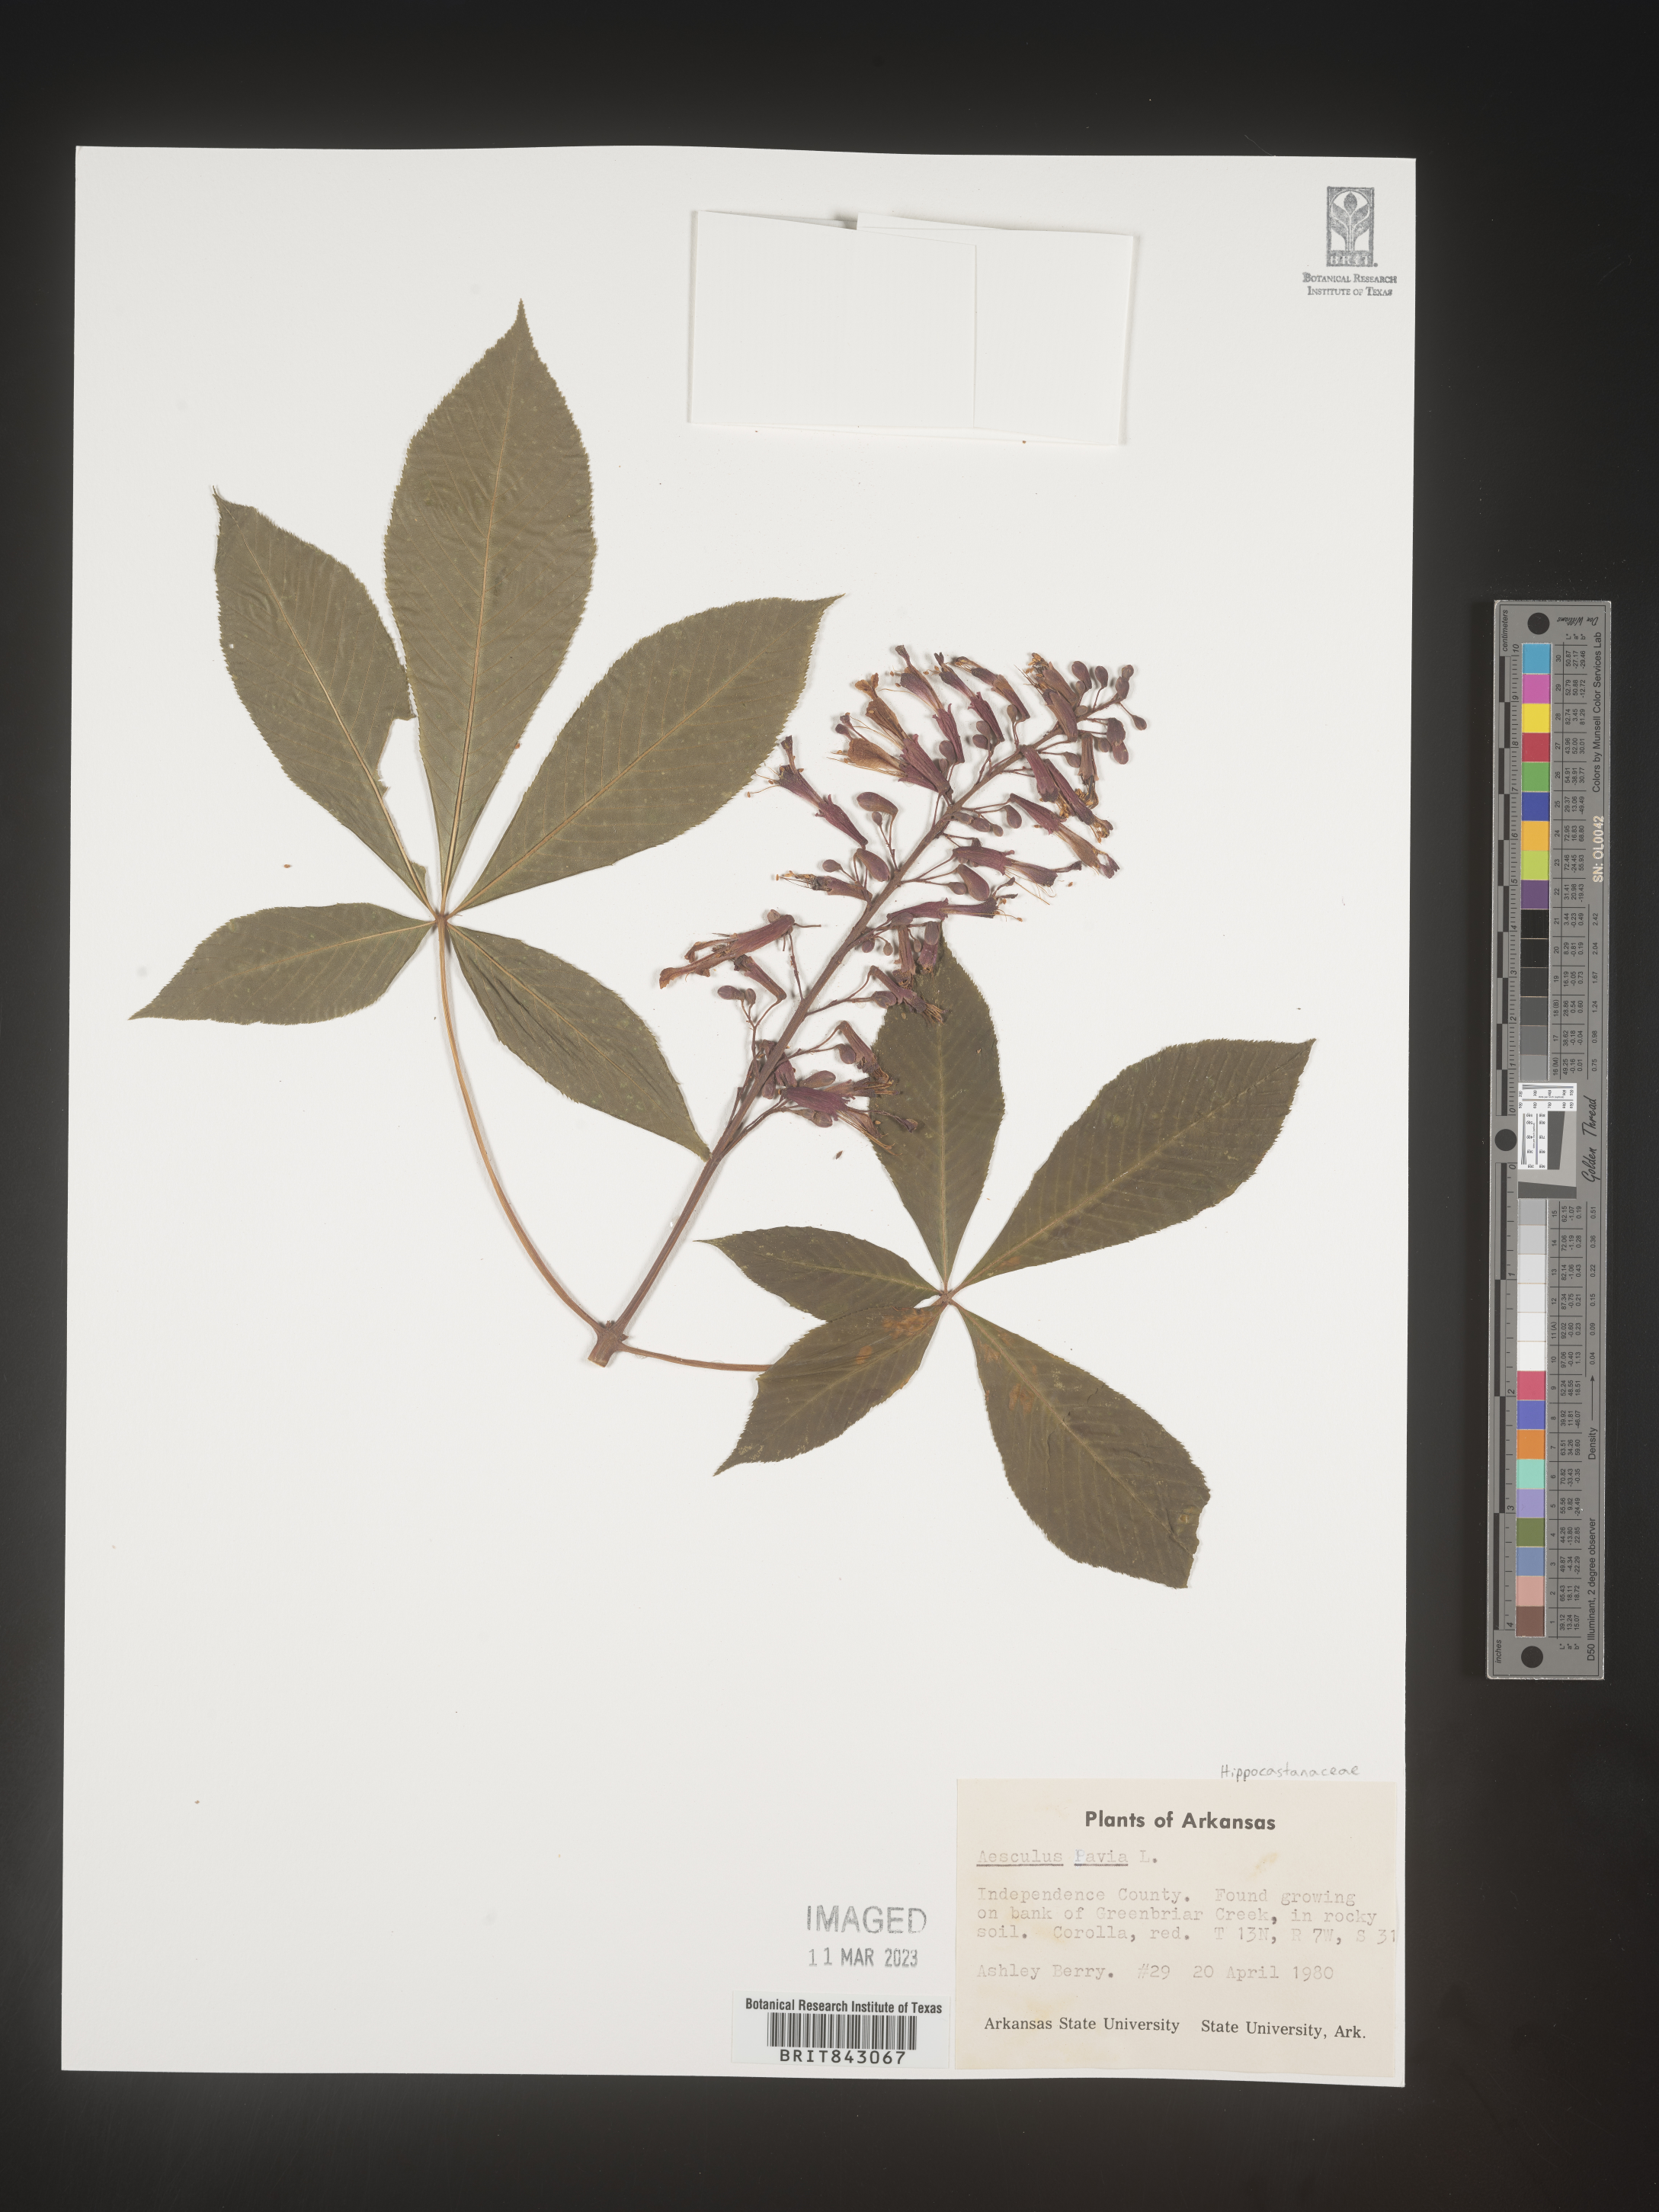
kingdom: Plantae
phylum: Tracheophyta
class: Magnoliopsida
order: Sapindales
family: Sapindaceae
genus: Aesculus
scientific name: Aesculus pavia
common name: Red buckeye
